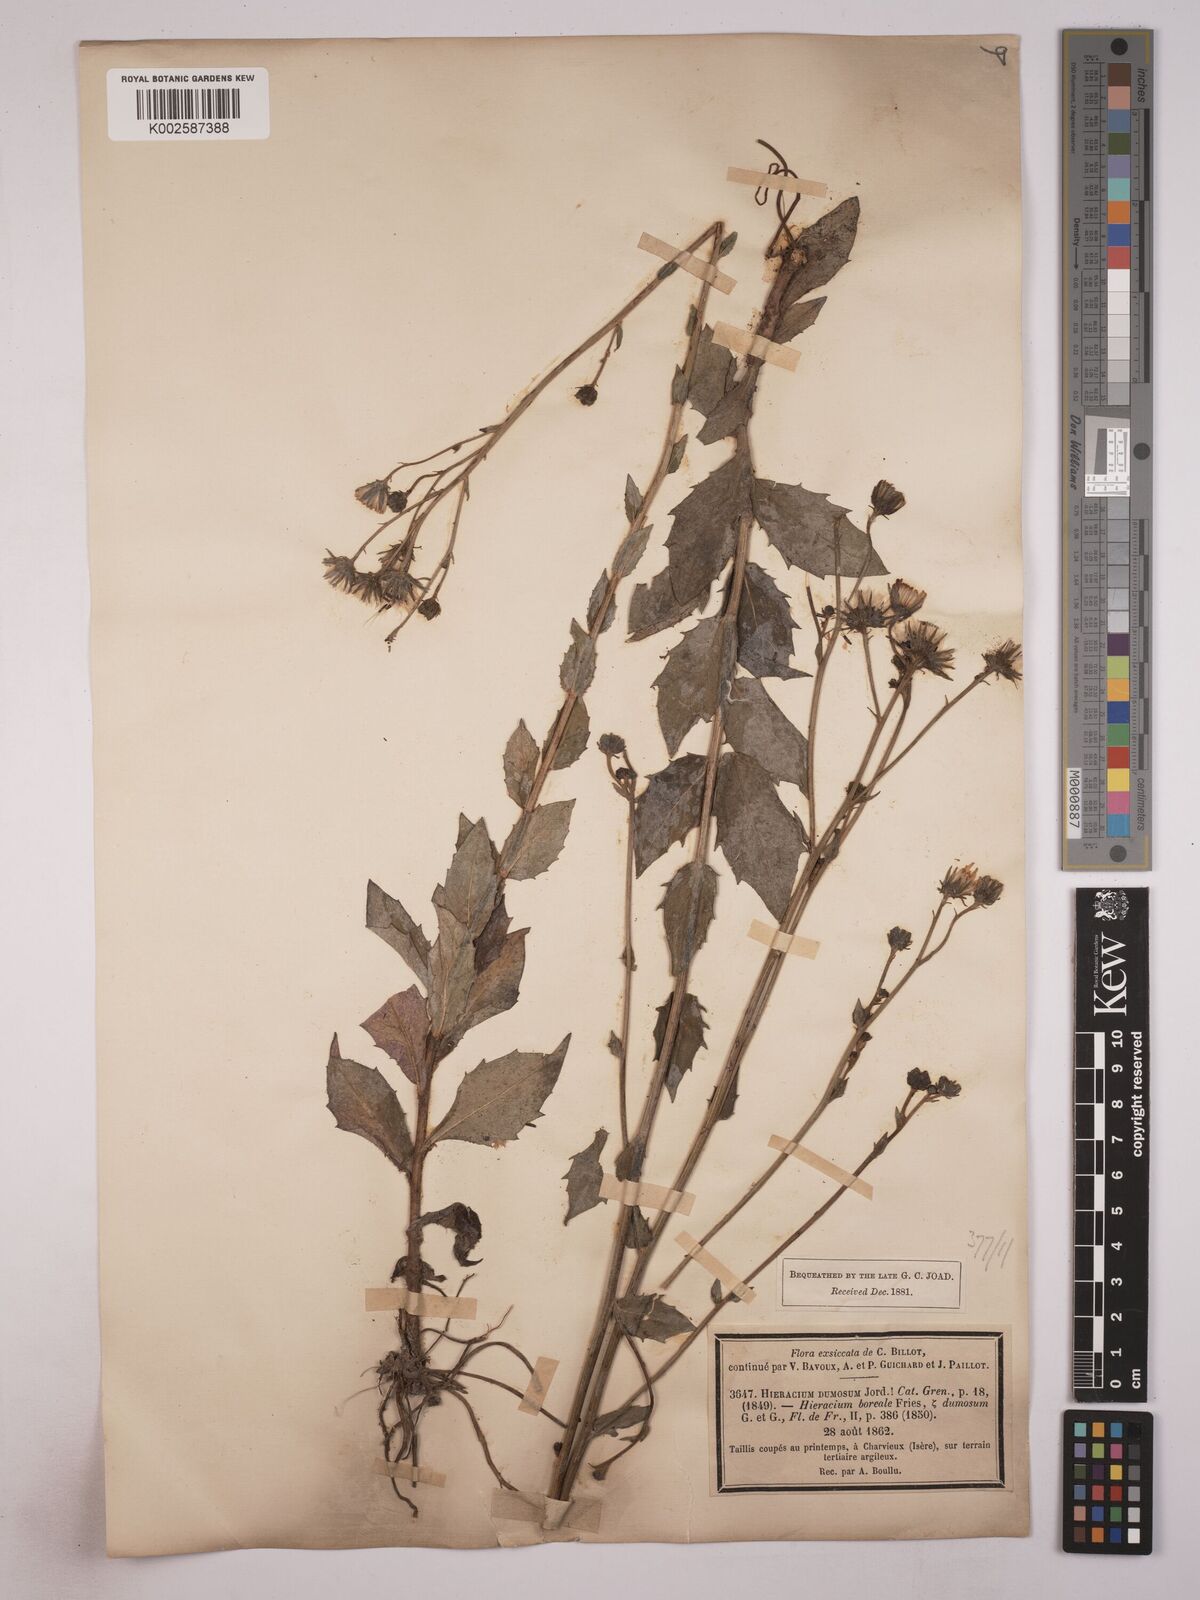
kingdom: Plantae
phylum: Tracheophyta
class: Magnoliopsida
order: Asterales
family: Asteraceae
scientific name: Asteraceae
